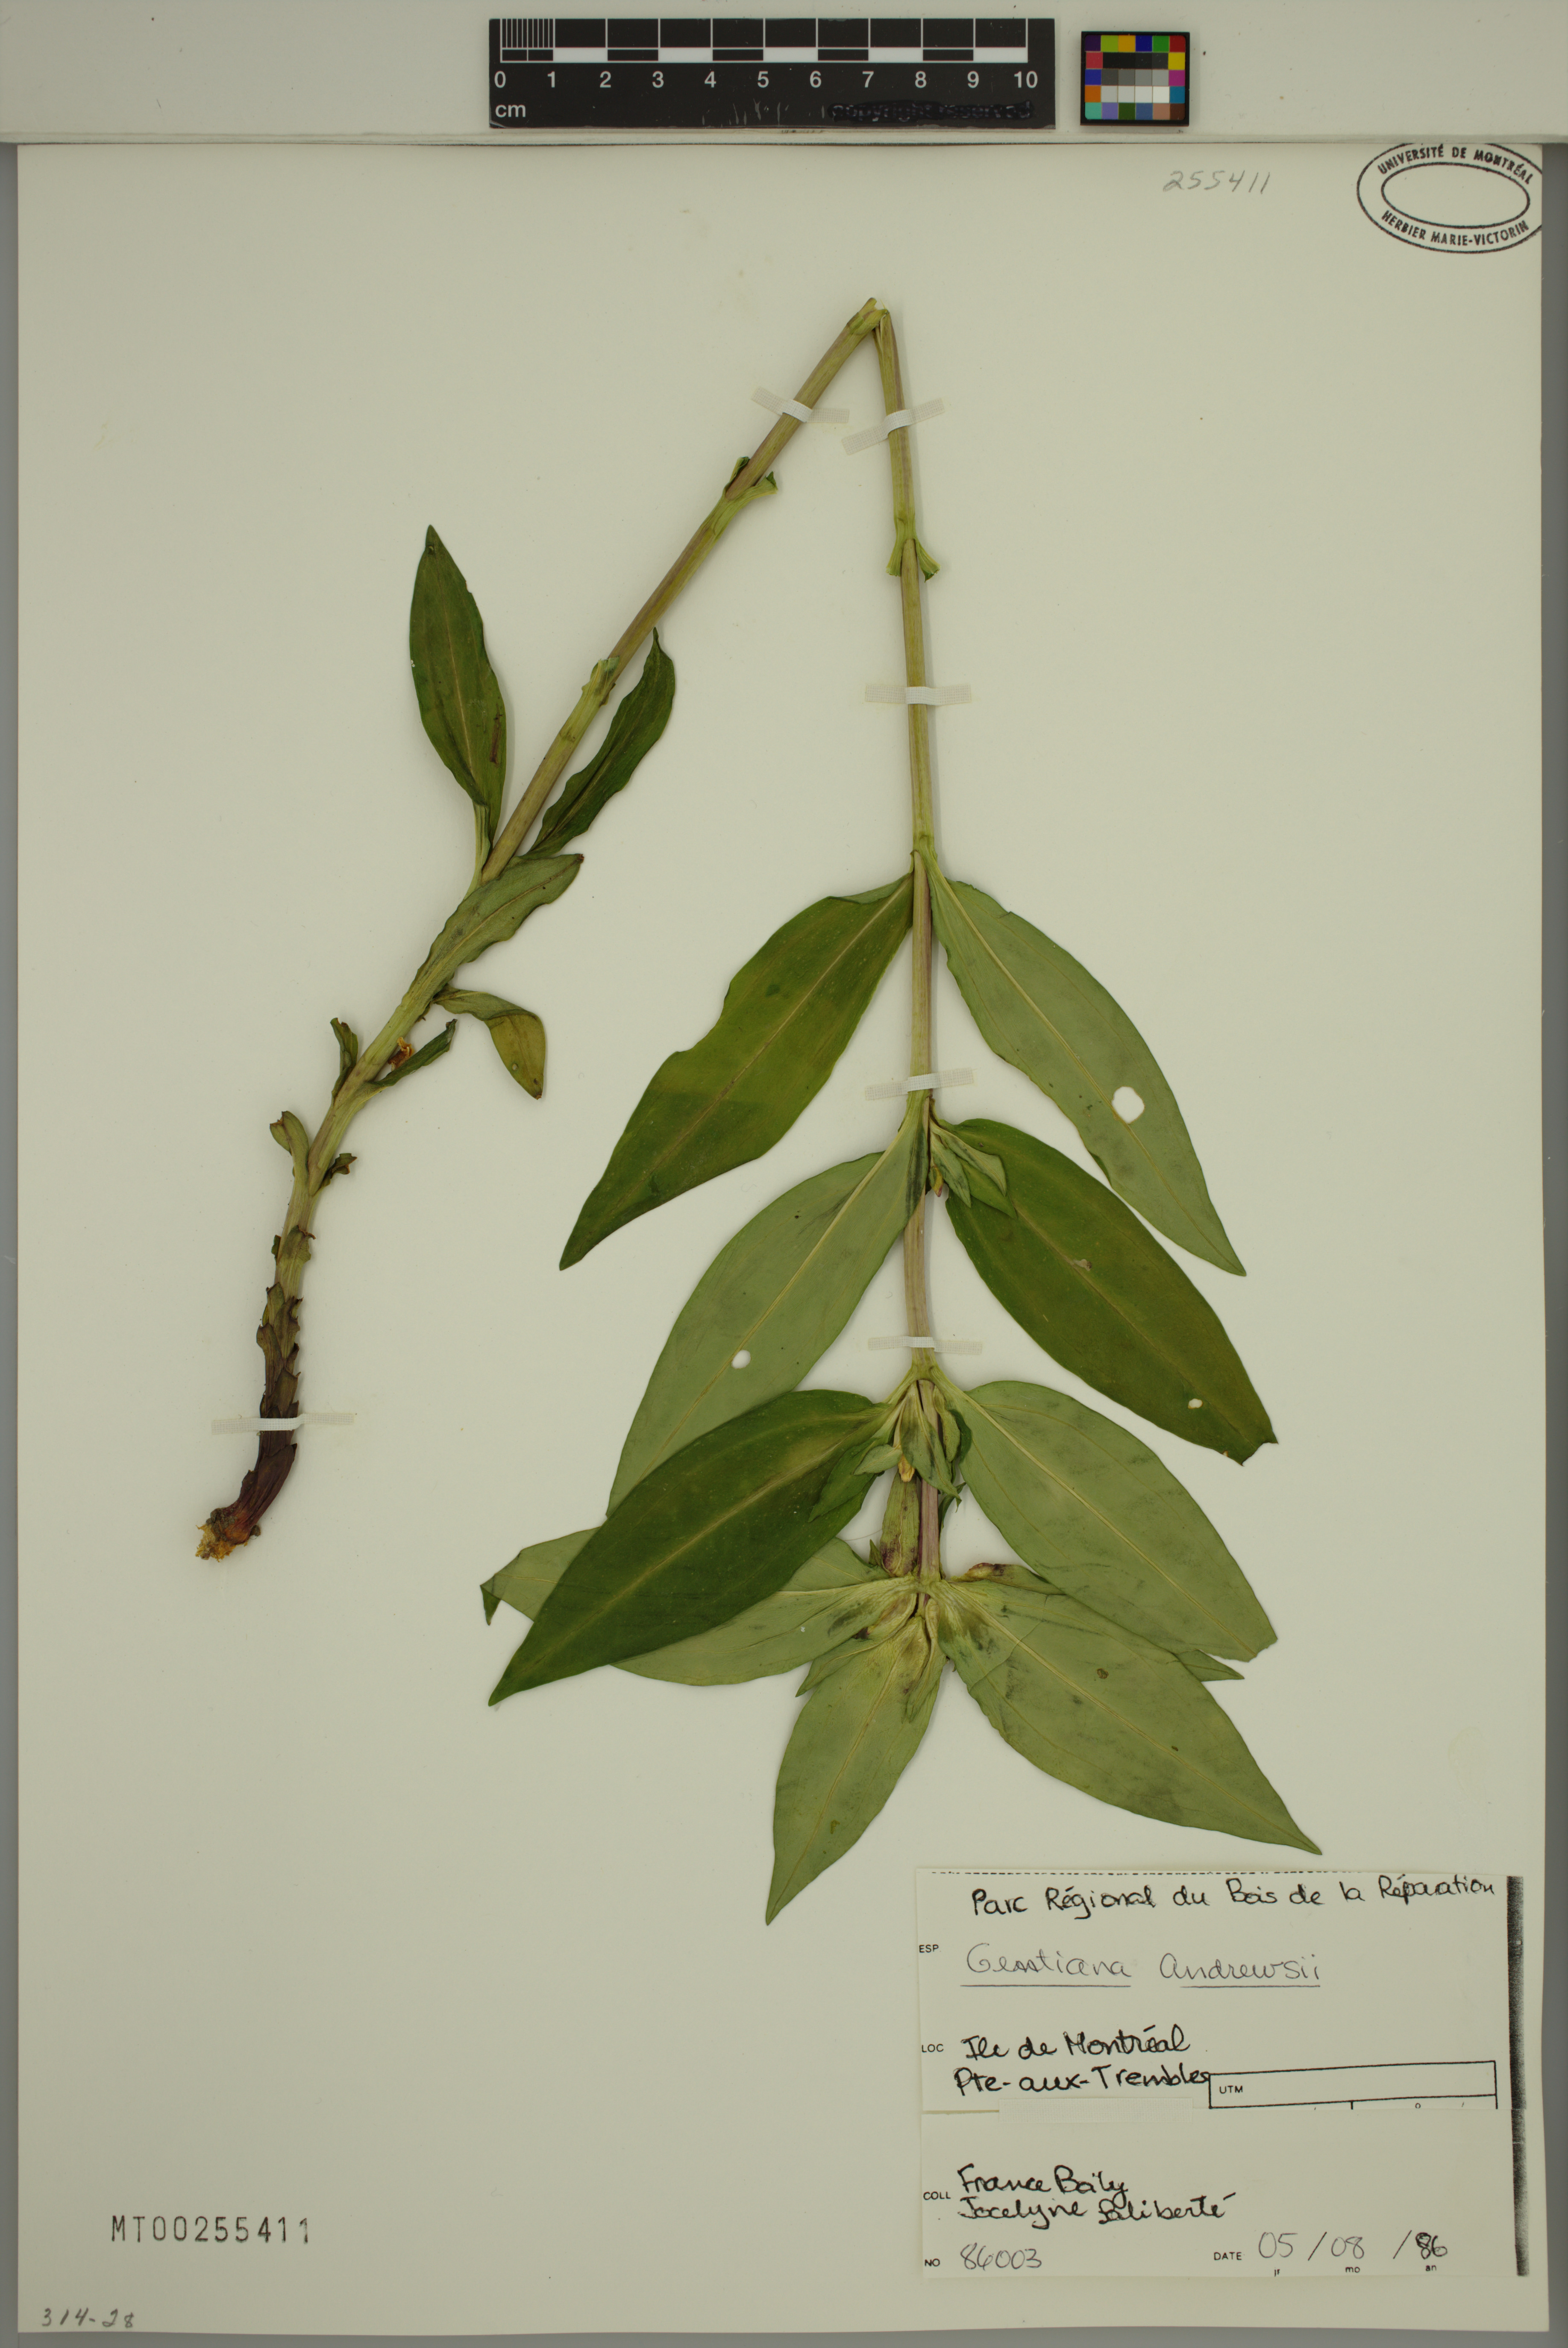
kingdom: Plantae
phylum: Tracheophyta
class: Magnoliopsida
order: Gentianales
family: Gentianaceae
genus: Gentiana
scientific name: Gentiana andrewsii
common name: Bottle gentian
